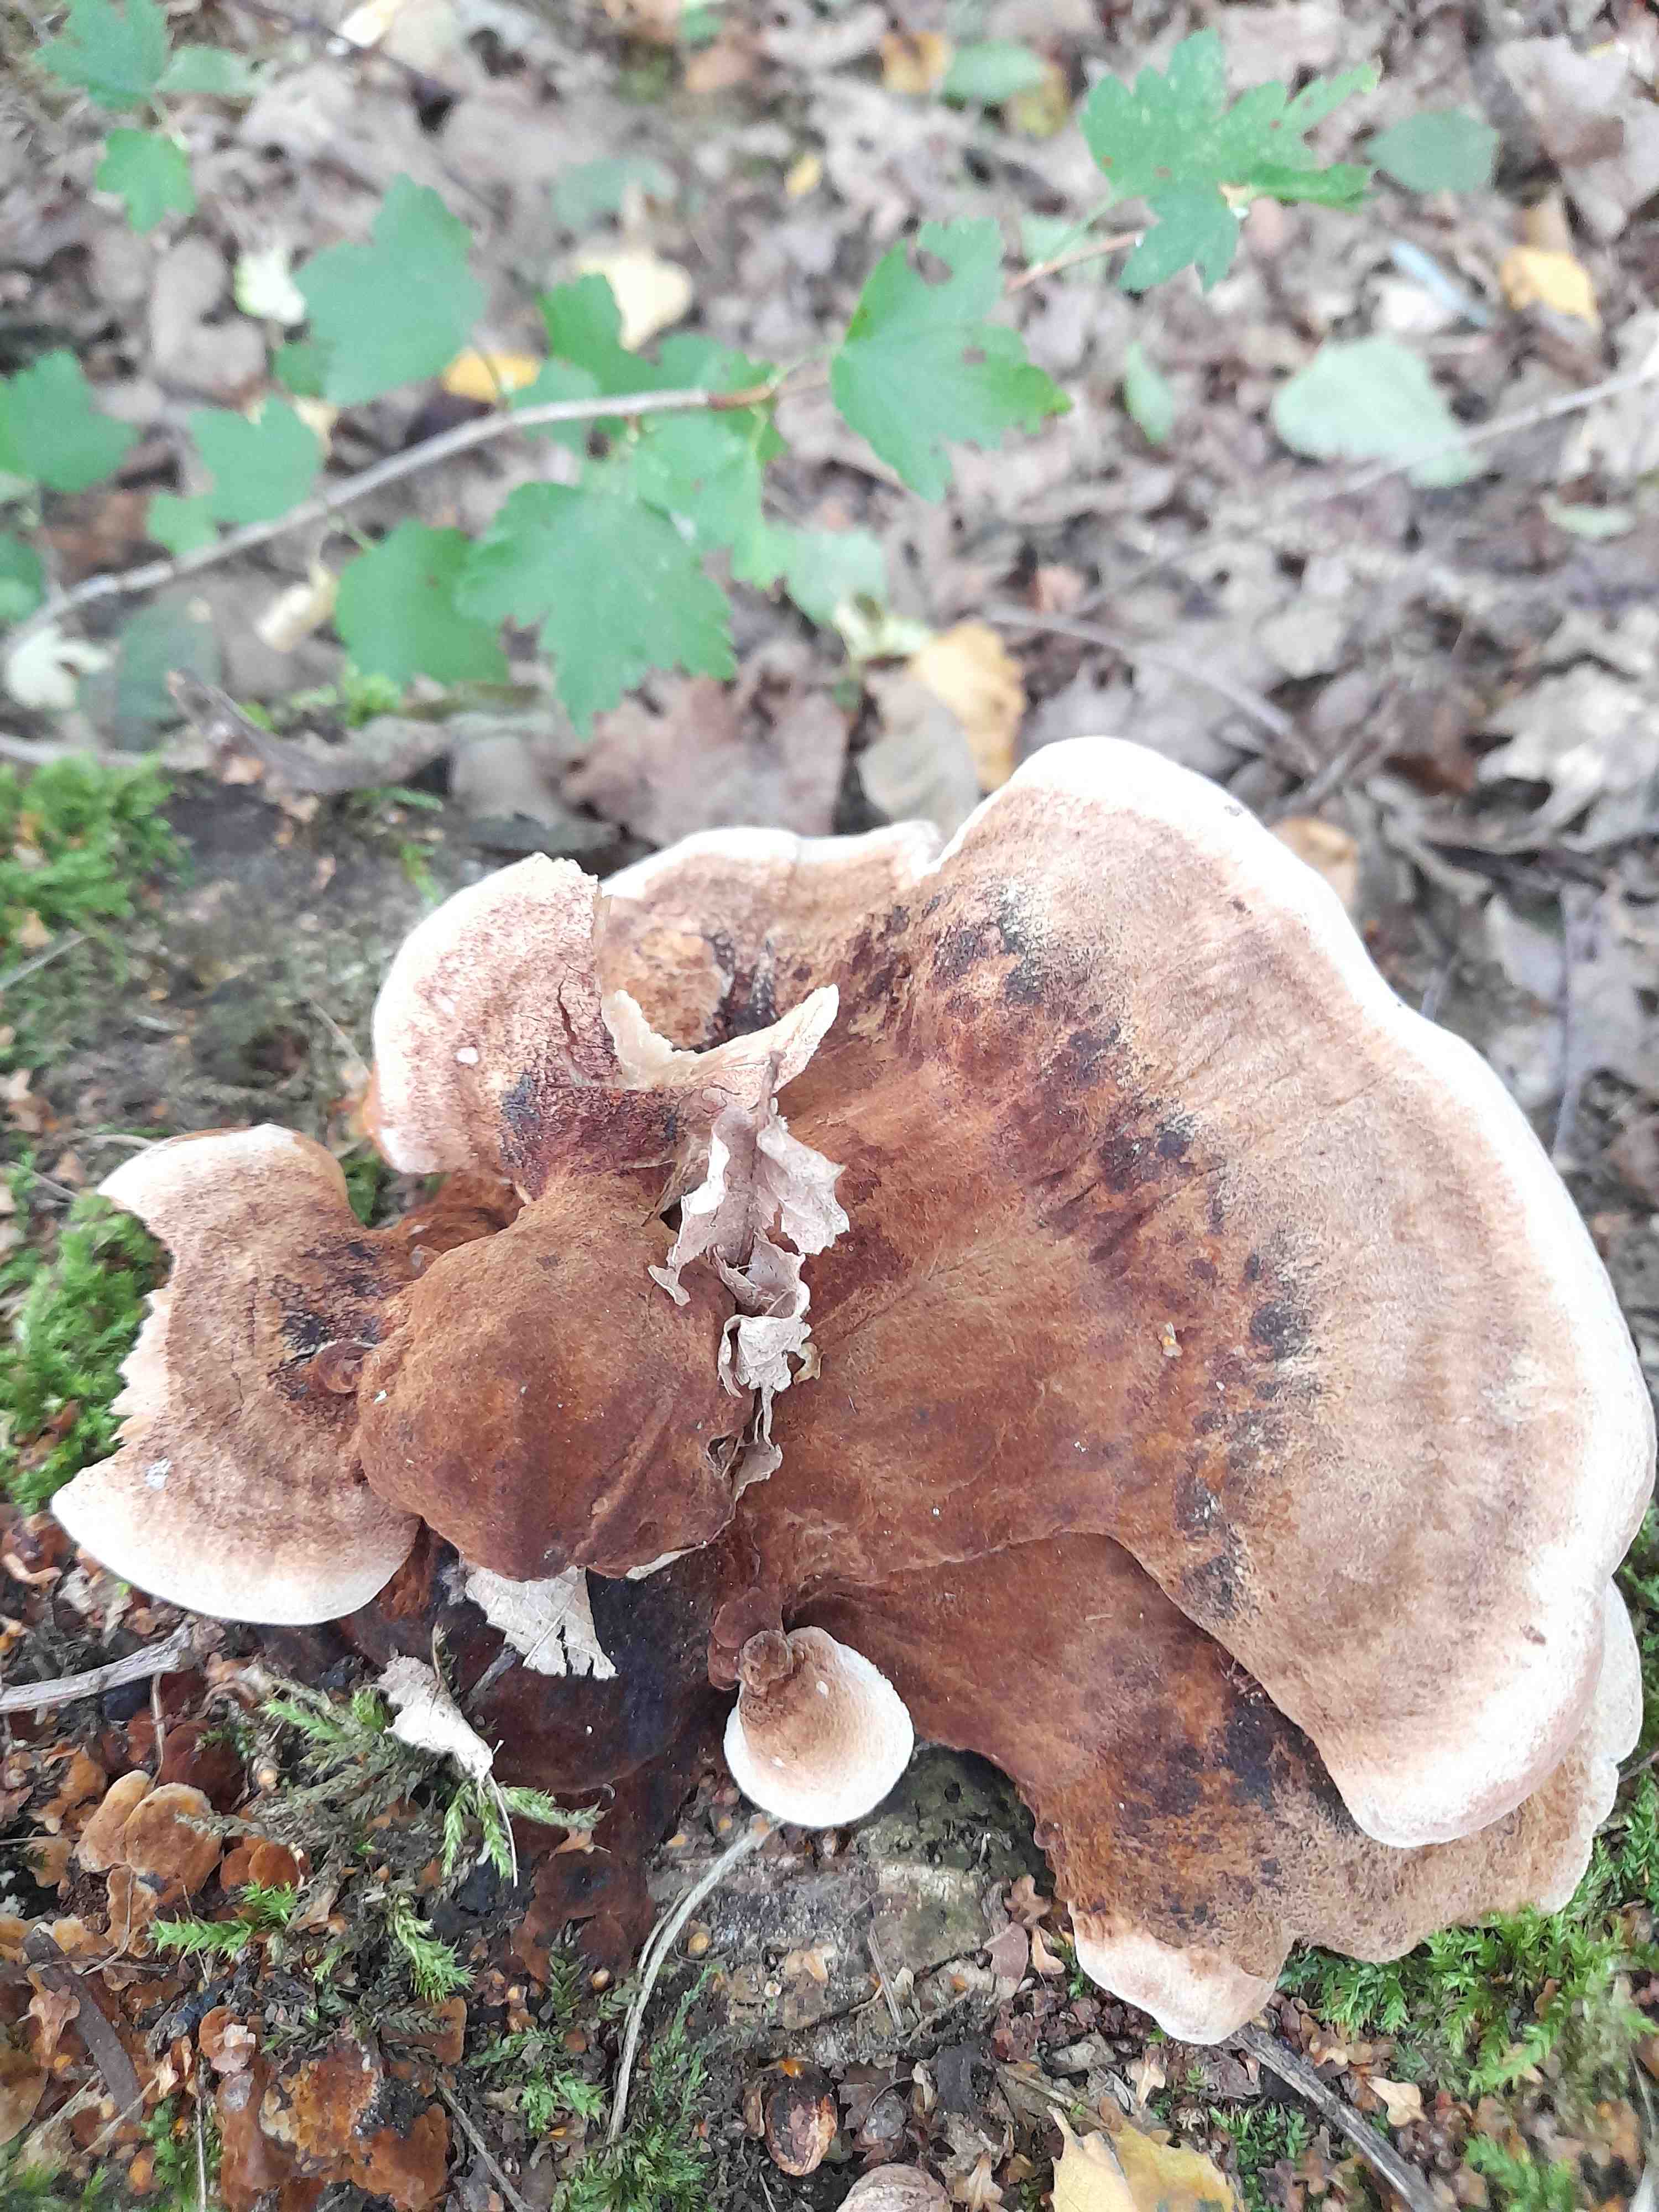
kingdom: Fungi
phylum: Basidiomycota
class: Agaricomycetes
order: Polyporales
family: Ischnodermataceae
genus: Ischnoderma
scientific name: Ischnoderma benzoinum
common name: gran-tjæreporesvamp
